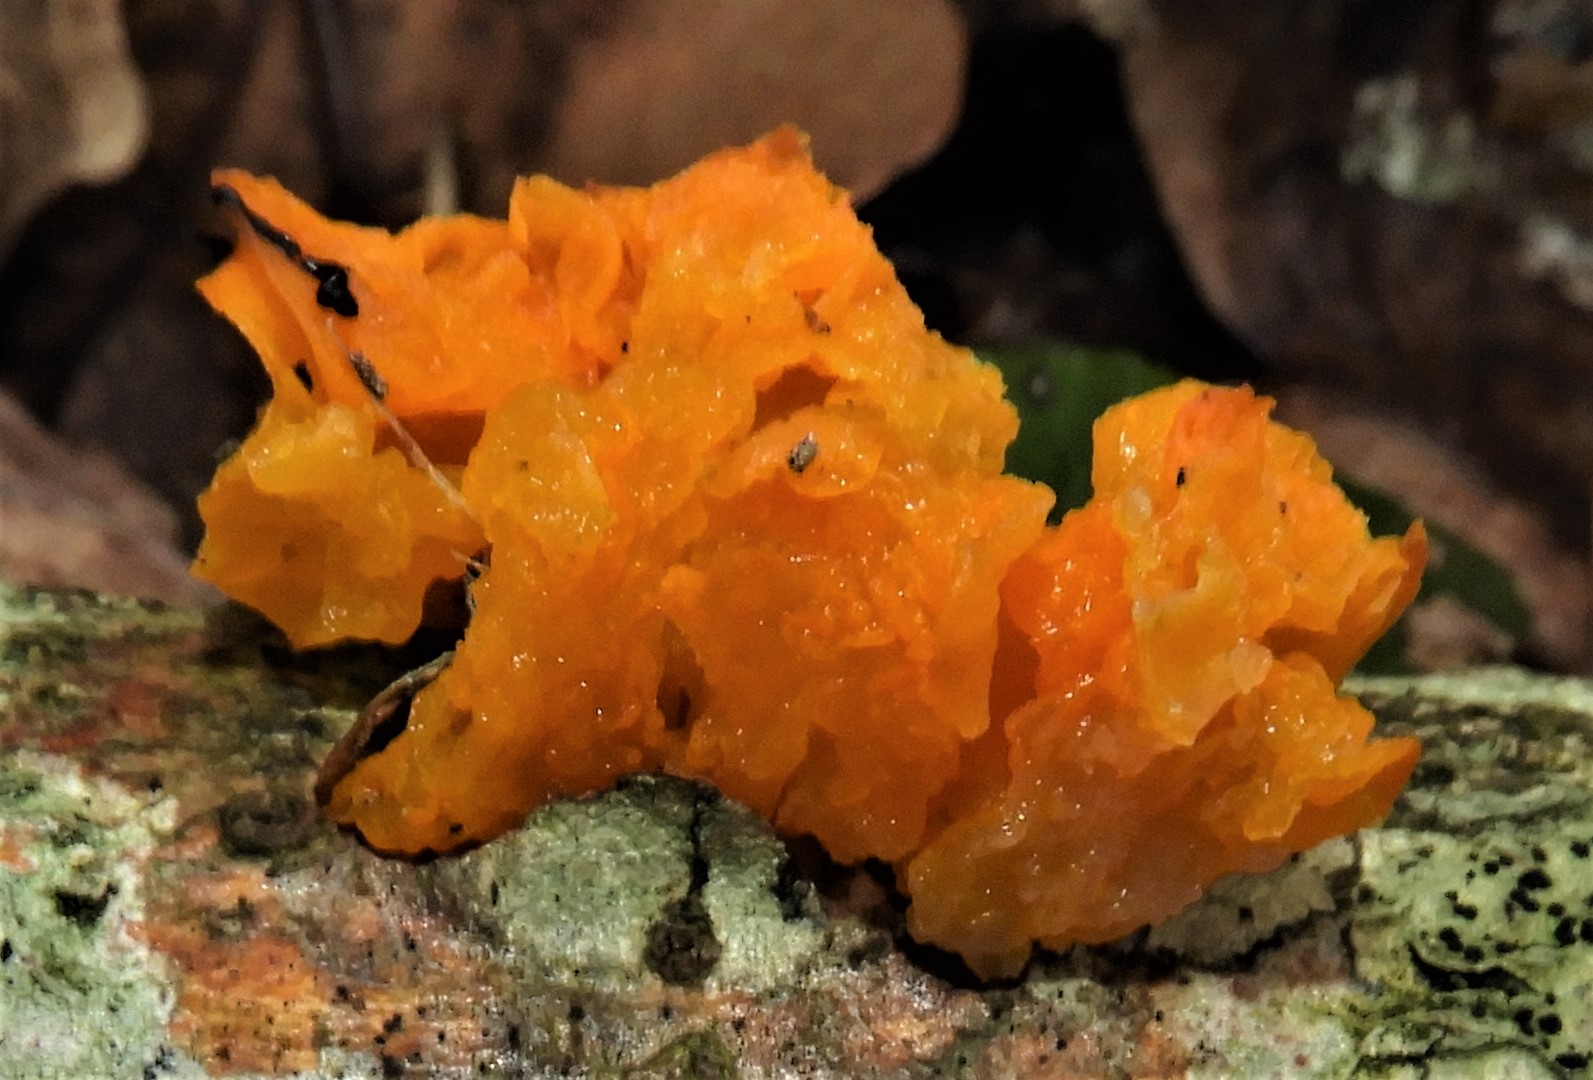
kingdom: Fungi
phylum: Basidiomycota
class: Tremellomycetes
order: Tremellales
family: Tremellaceae
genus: Tremella
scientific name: Tremella mesenterica
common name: gul bævresvamp
